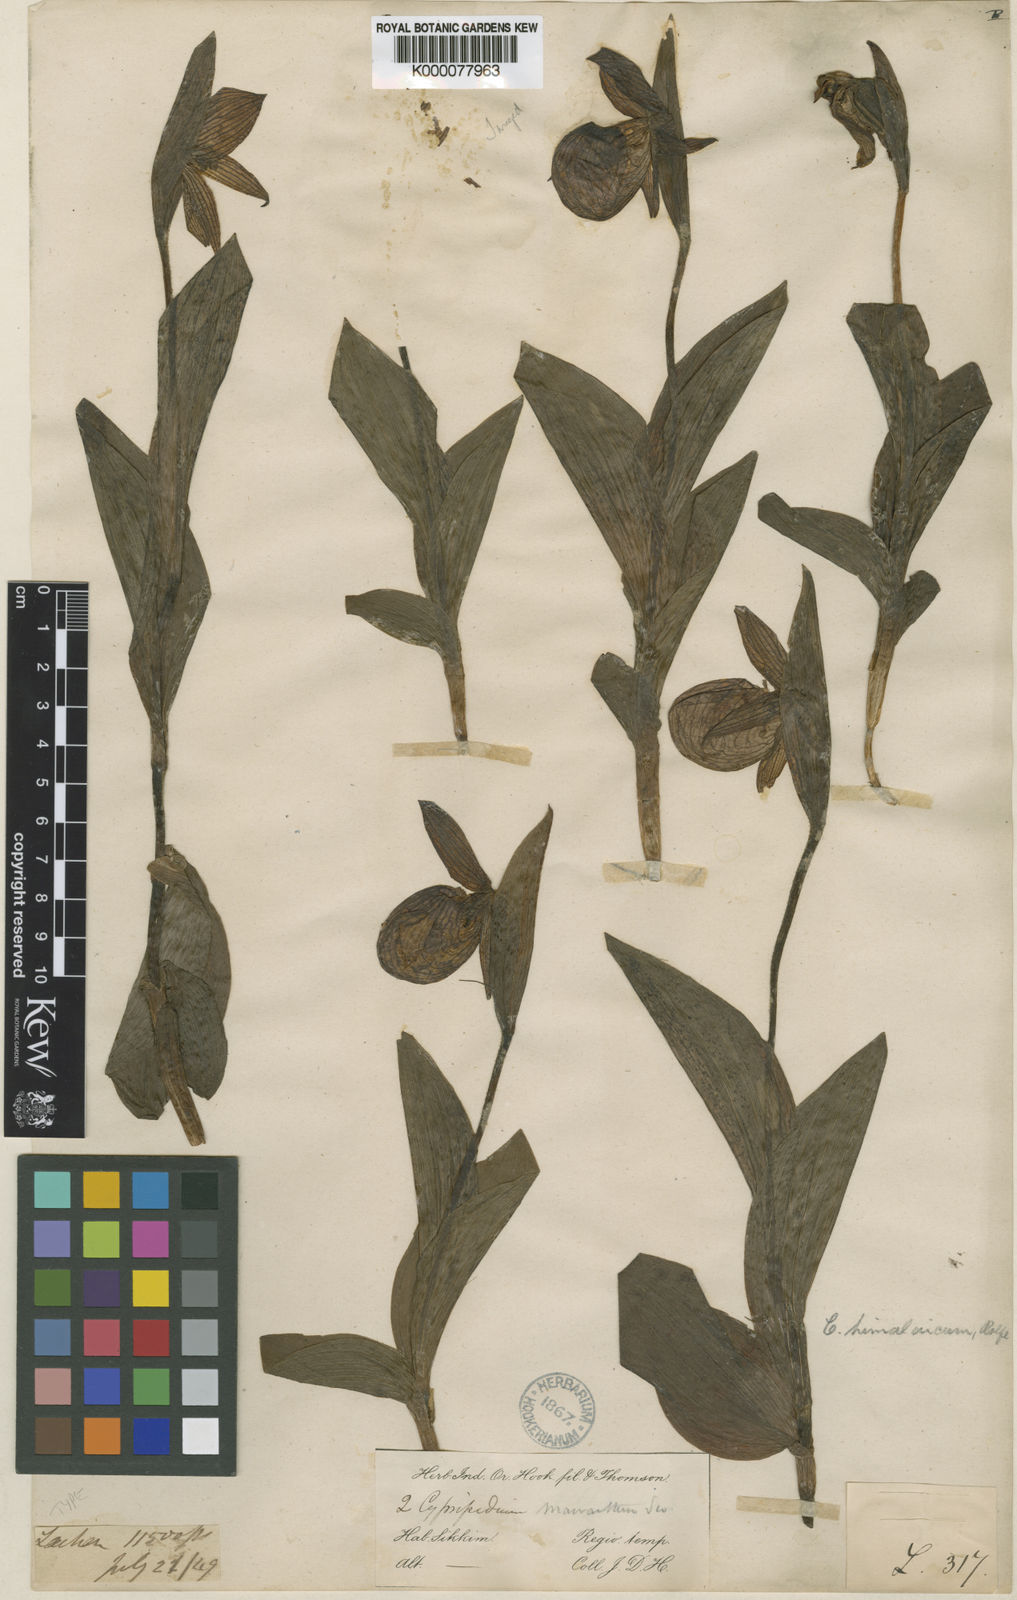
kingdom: Plantae
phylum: Tracheophyta
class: Liliopsida
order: Asparagales
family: Orchidaceae
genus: Cypripedium
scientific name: Cypripedium himalaicum
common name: Himalayan cypripedium
